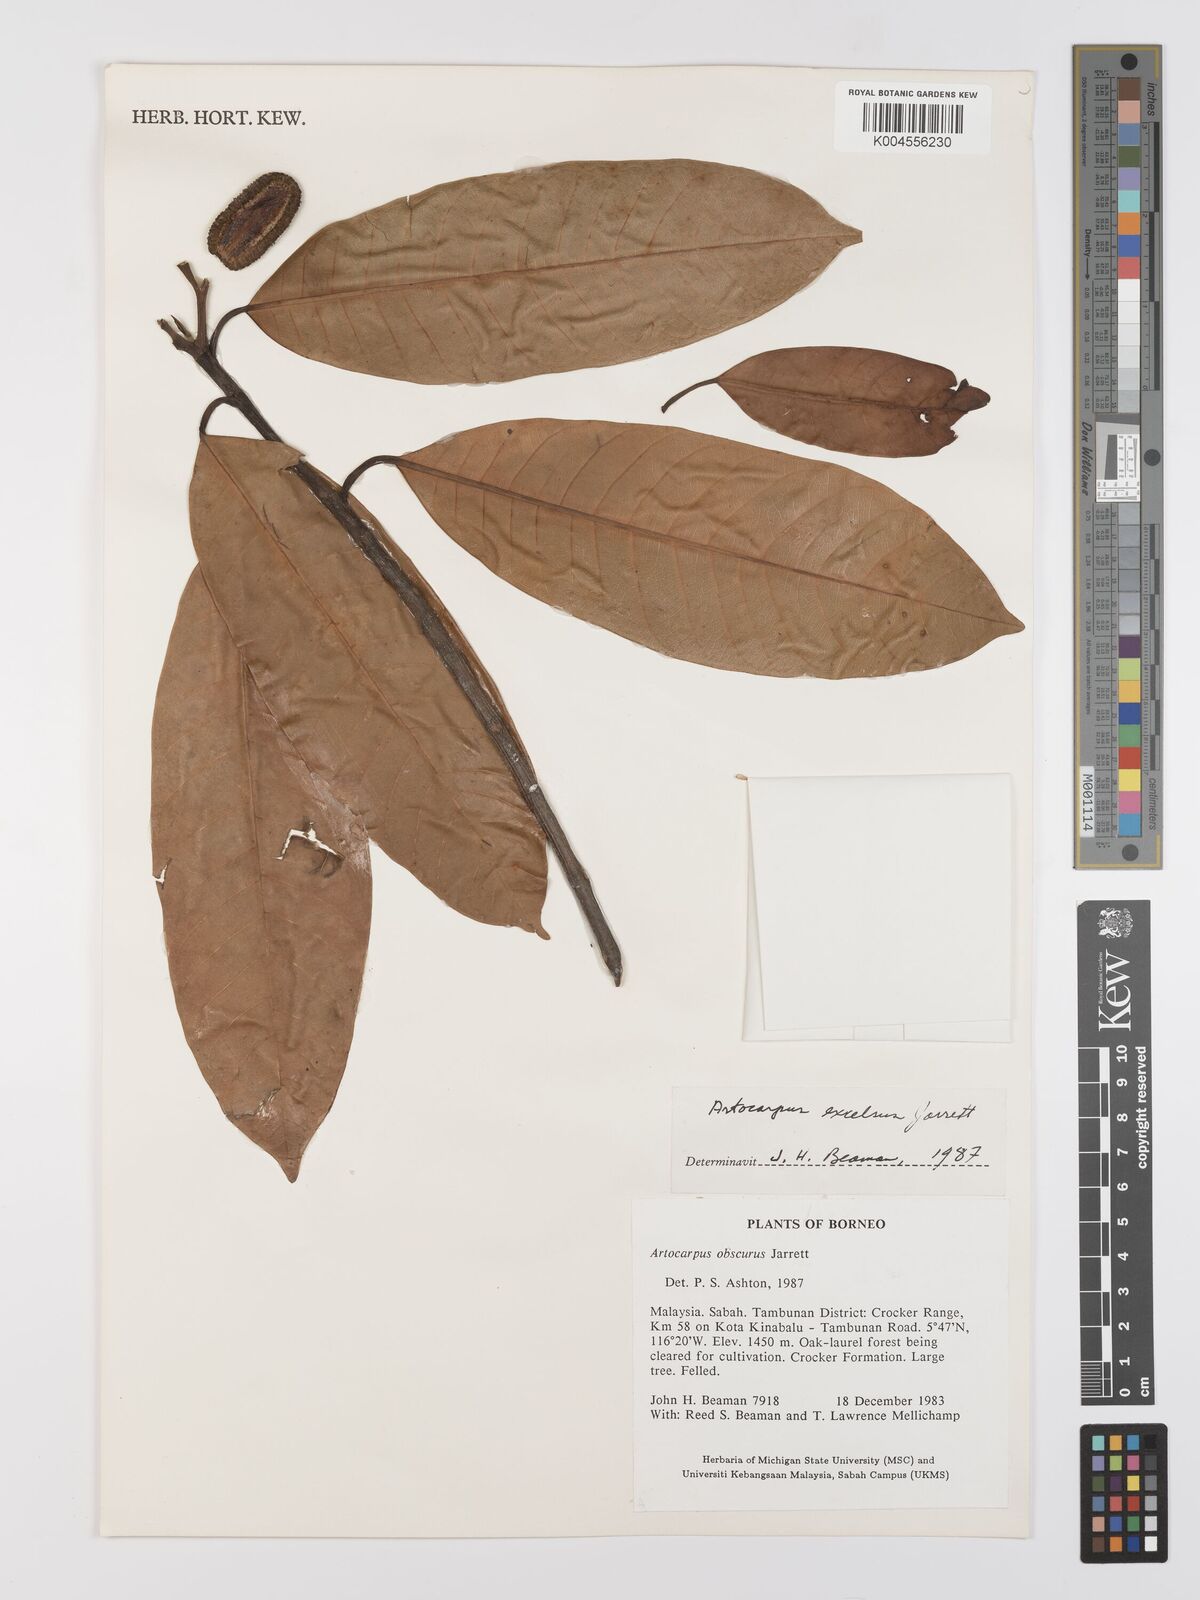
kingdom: Plantae
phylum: Tracheophyta
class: Magnoliopsida
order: Rosales
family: Moraceae
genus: Artocarpus
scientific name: Artocarpus excelsus
